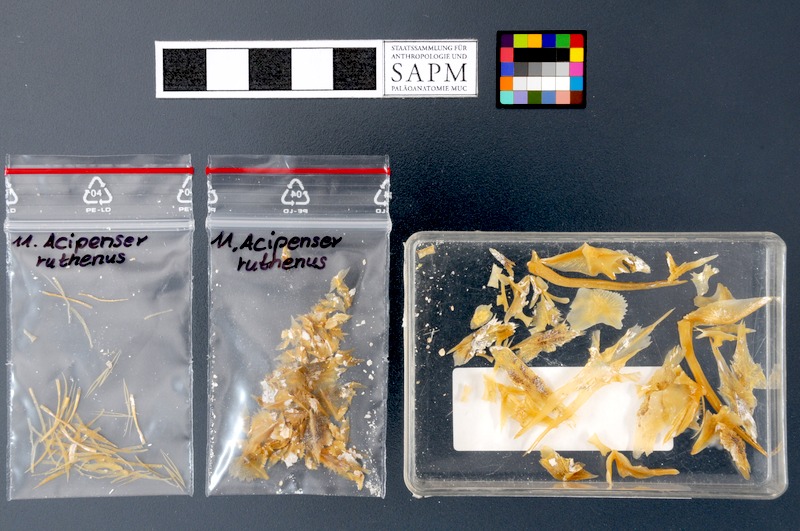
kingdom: Animalia
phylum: Chordata
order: Acipenseriformes
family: Acipenseridae
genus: Acipenser
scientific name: Acipenser ruthenus
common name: Sterlet
